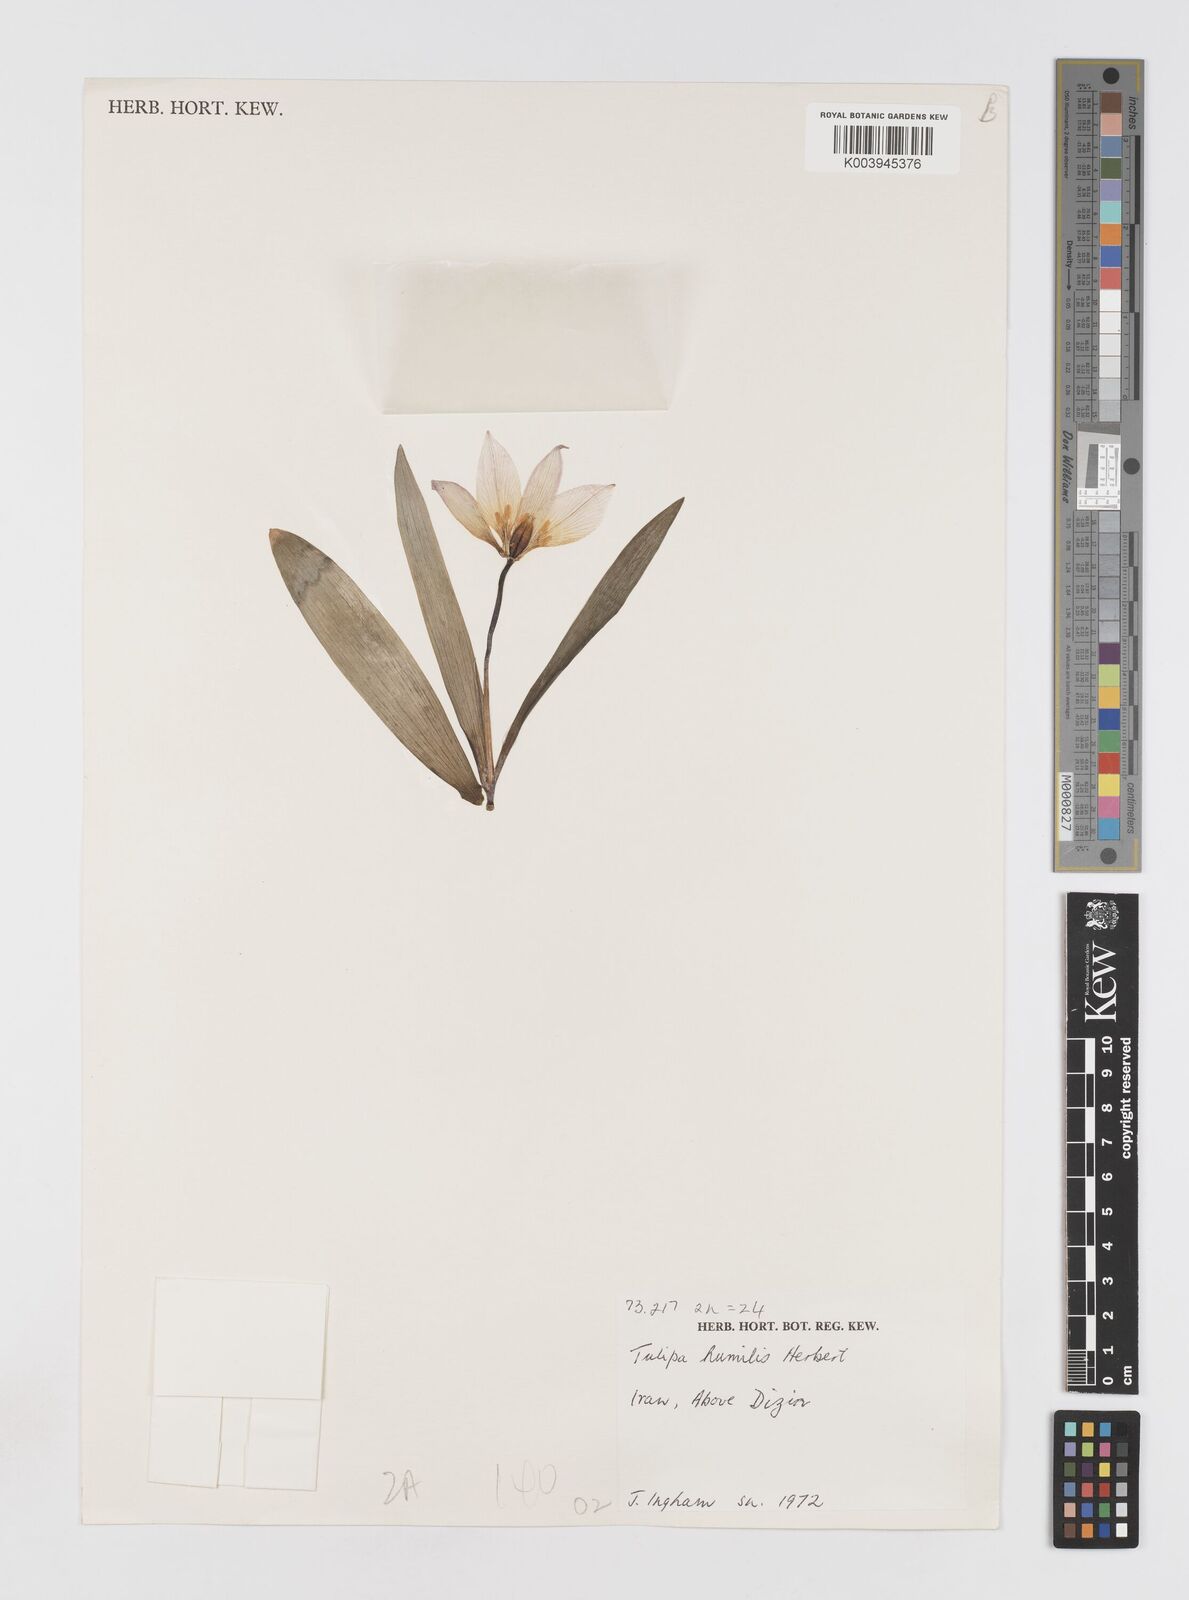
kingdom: Plantae
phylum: Tracheophyta
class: Liliopsida
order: Liliales
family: Liliaceae
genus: Tulipa
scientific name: Tulipa humilis
